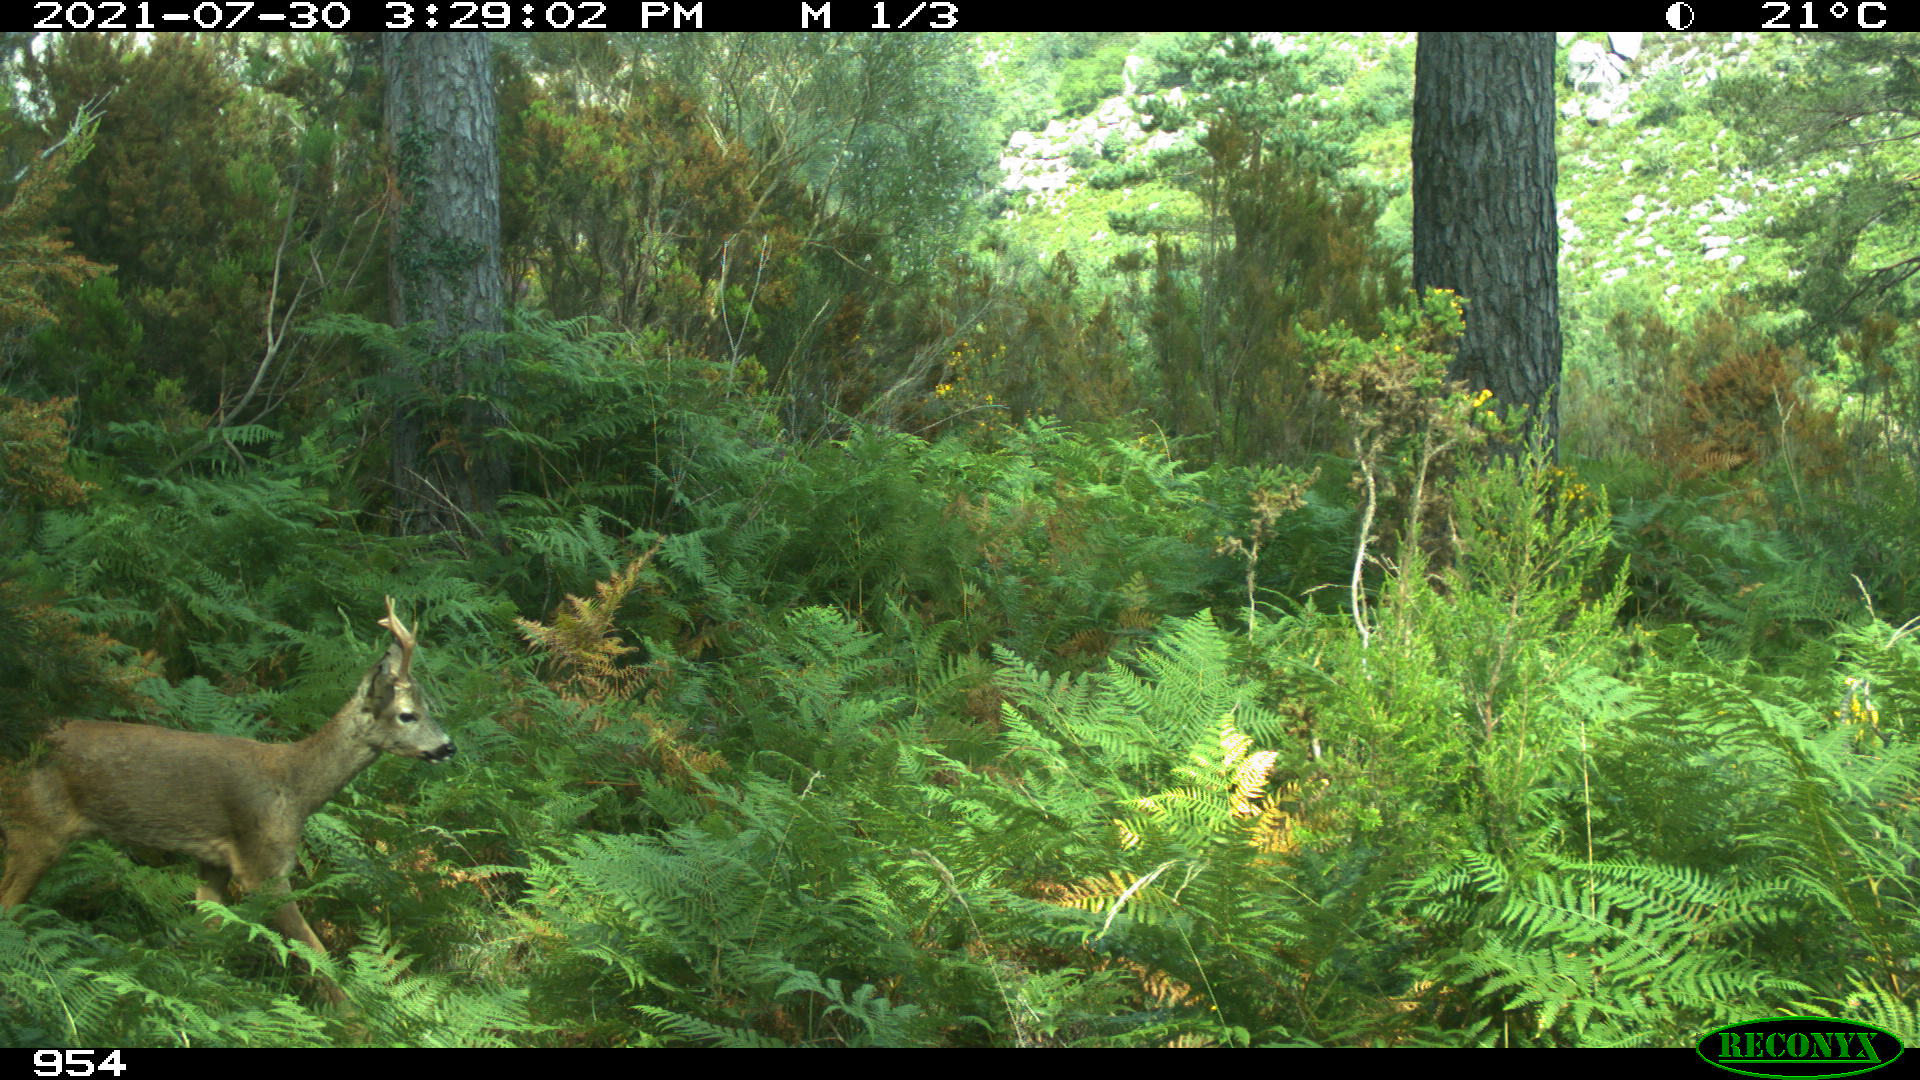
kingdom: Animalia
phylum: Chordata
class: Mammalia
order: Artiodactyla
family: Cervidae
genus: Capreolus
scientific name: Capreolus capreolus
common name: Western roe deer
